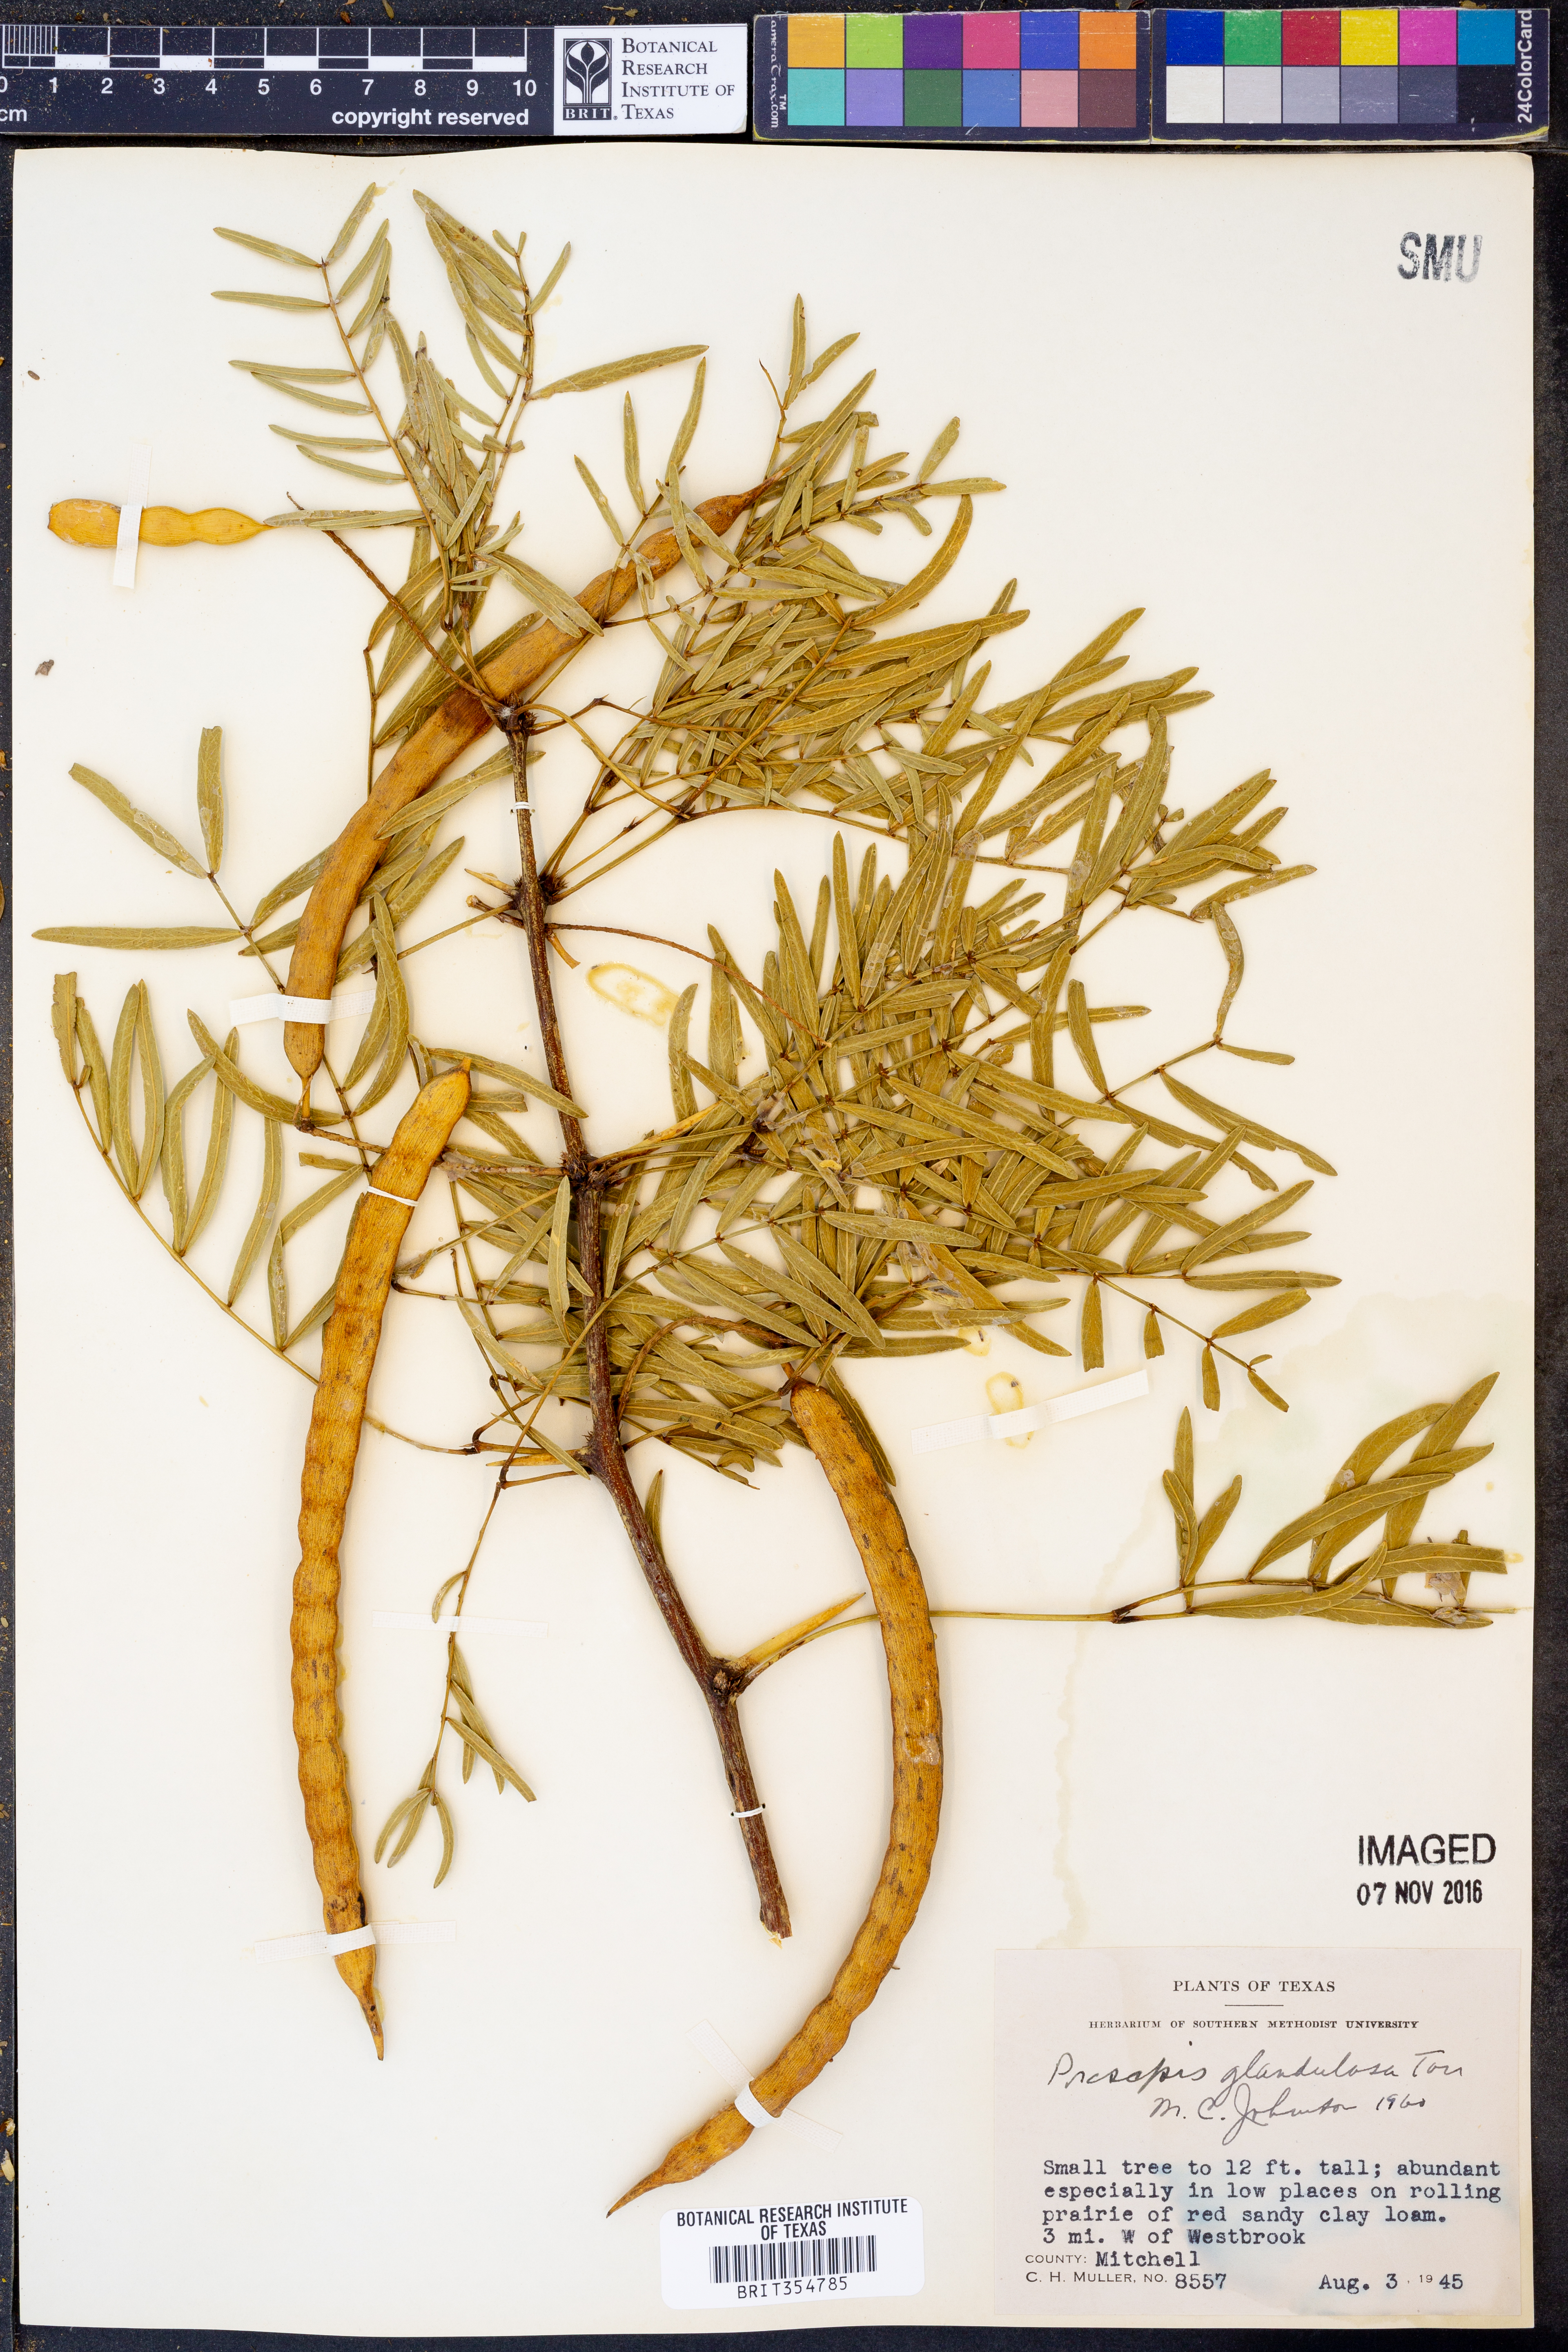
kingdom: Plantae
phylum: Tracheophyta
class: Magnoliopsida
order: Fabales
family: Fabaceae
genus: Prosopis
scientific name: Prosopis glandulosa
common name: Honey mesquite
